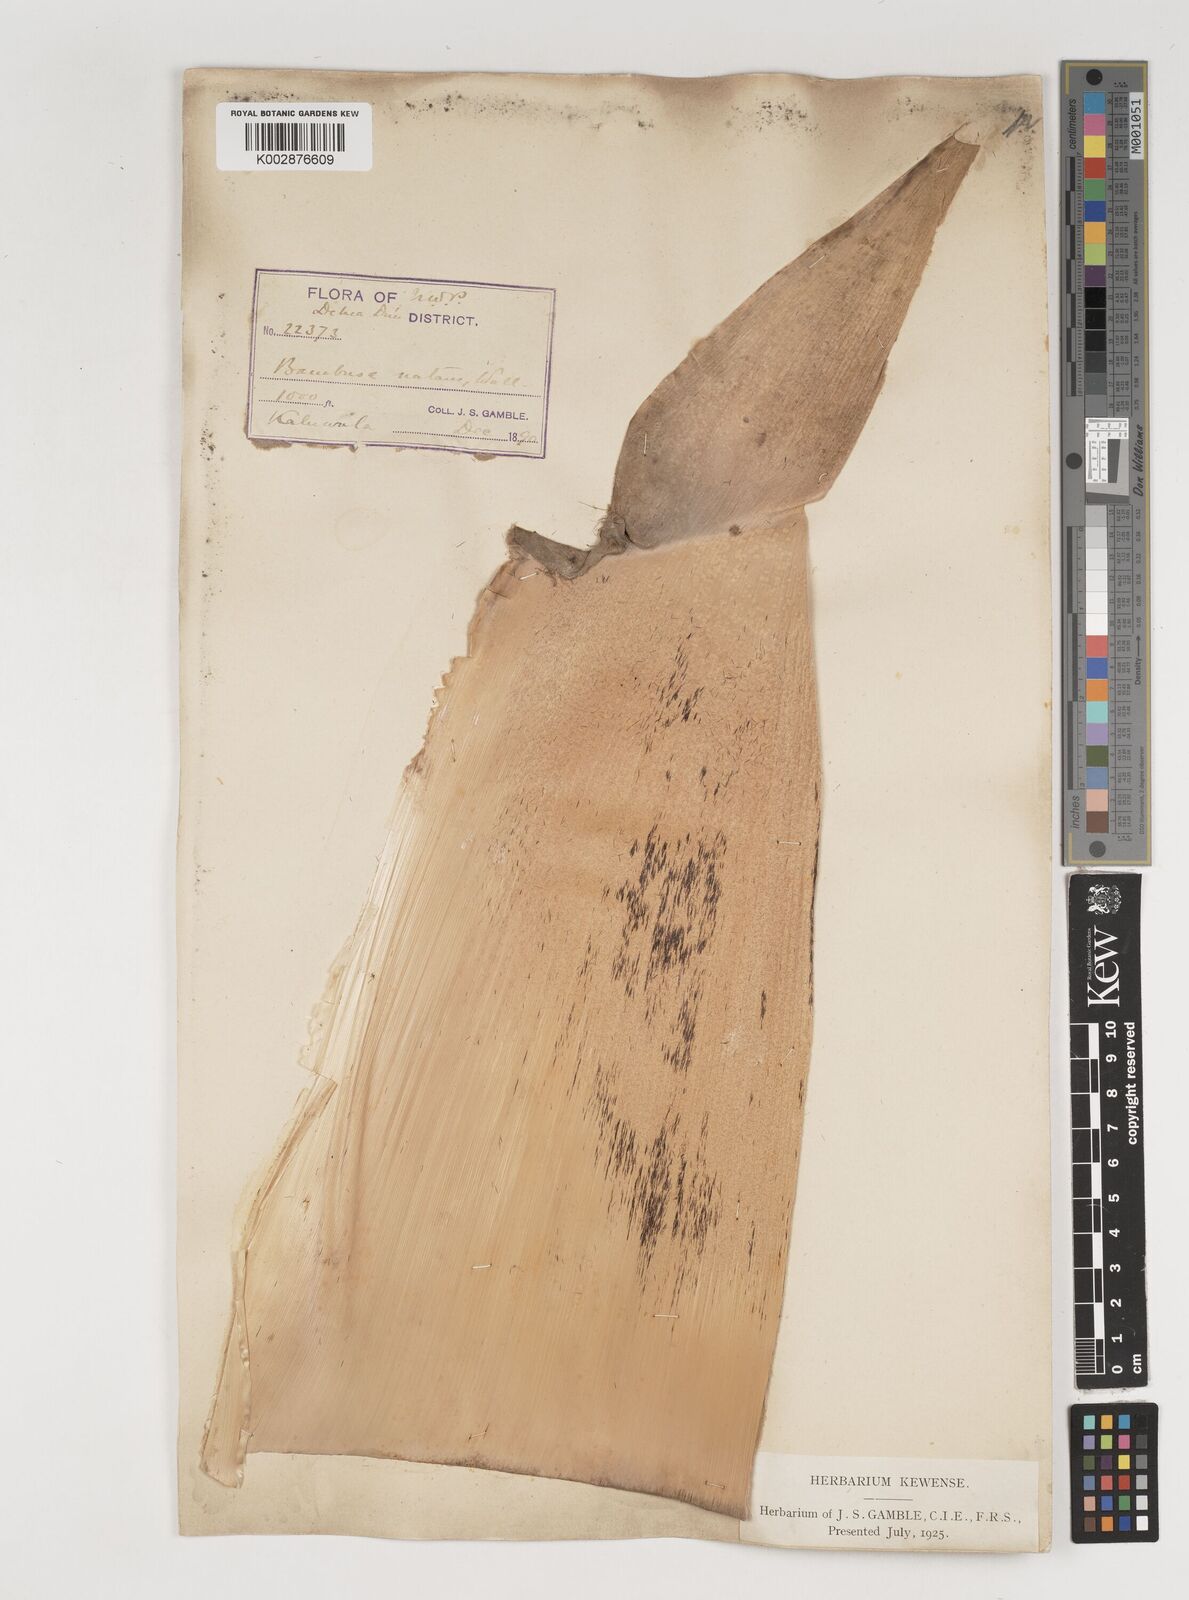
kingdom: Plantae
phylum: Tracheophyta
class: Liliopsida
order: Poales
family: Poaceae
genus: Bambusa
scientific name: Bambusa nutans
